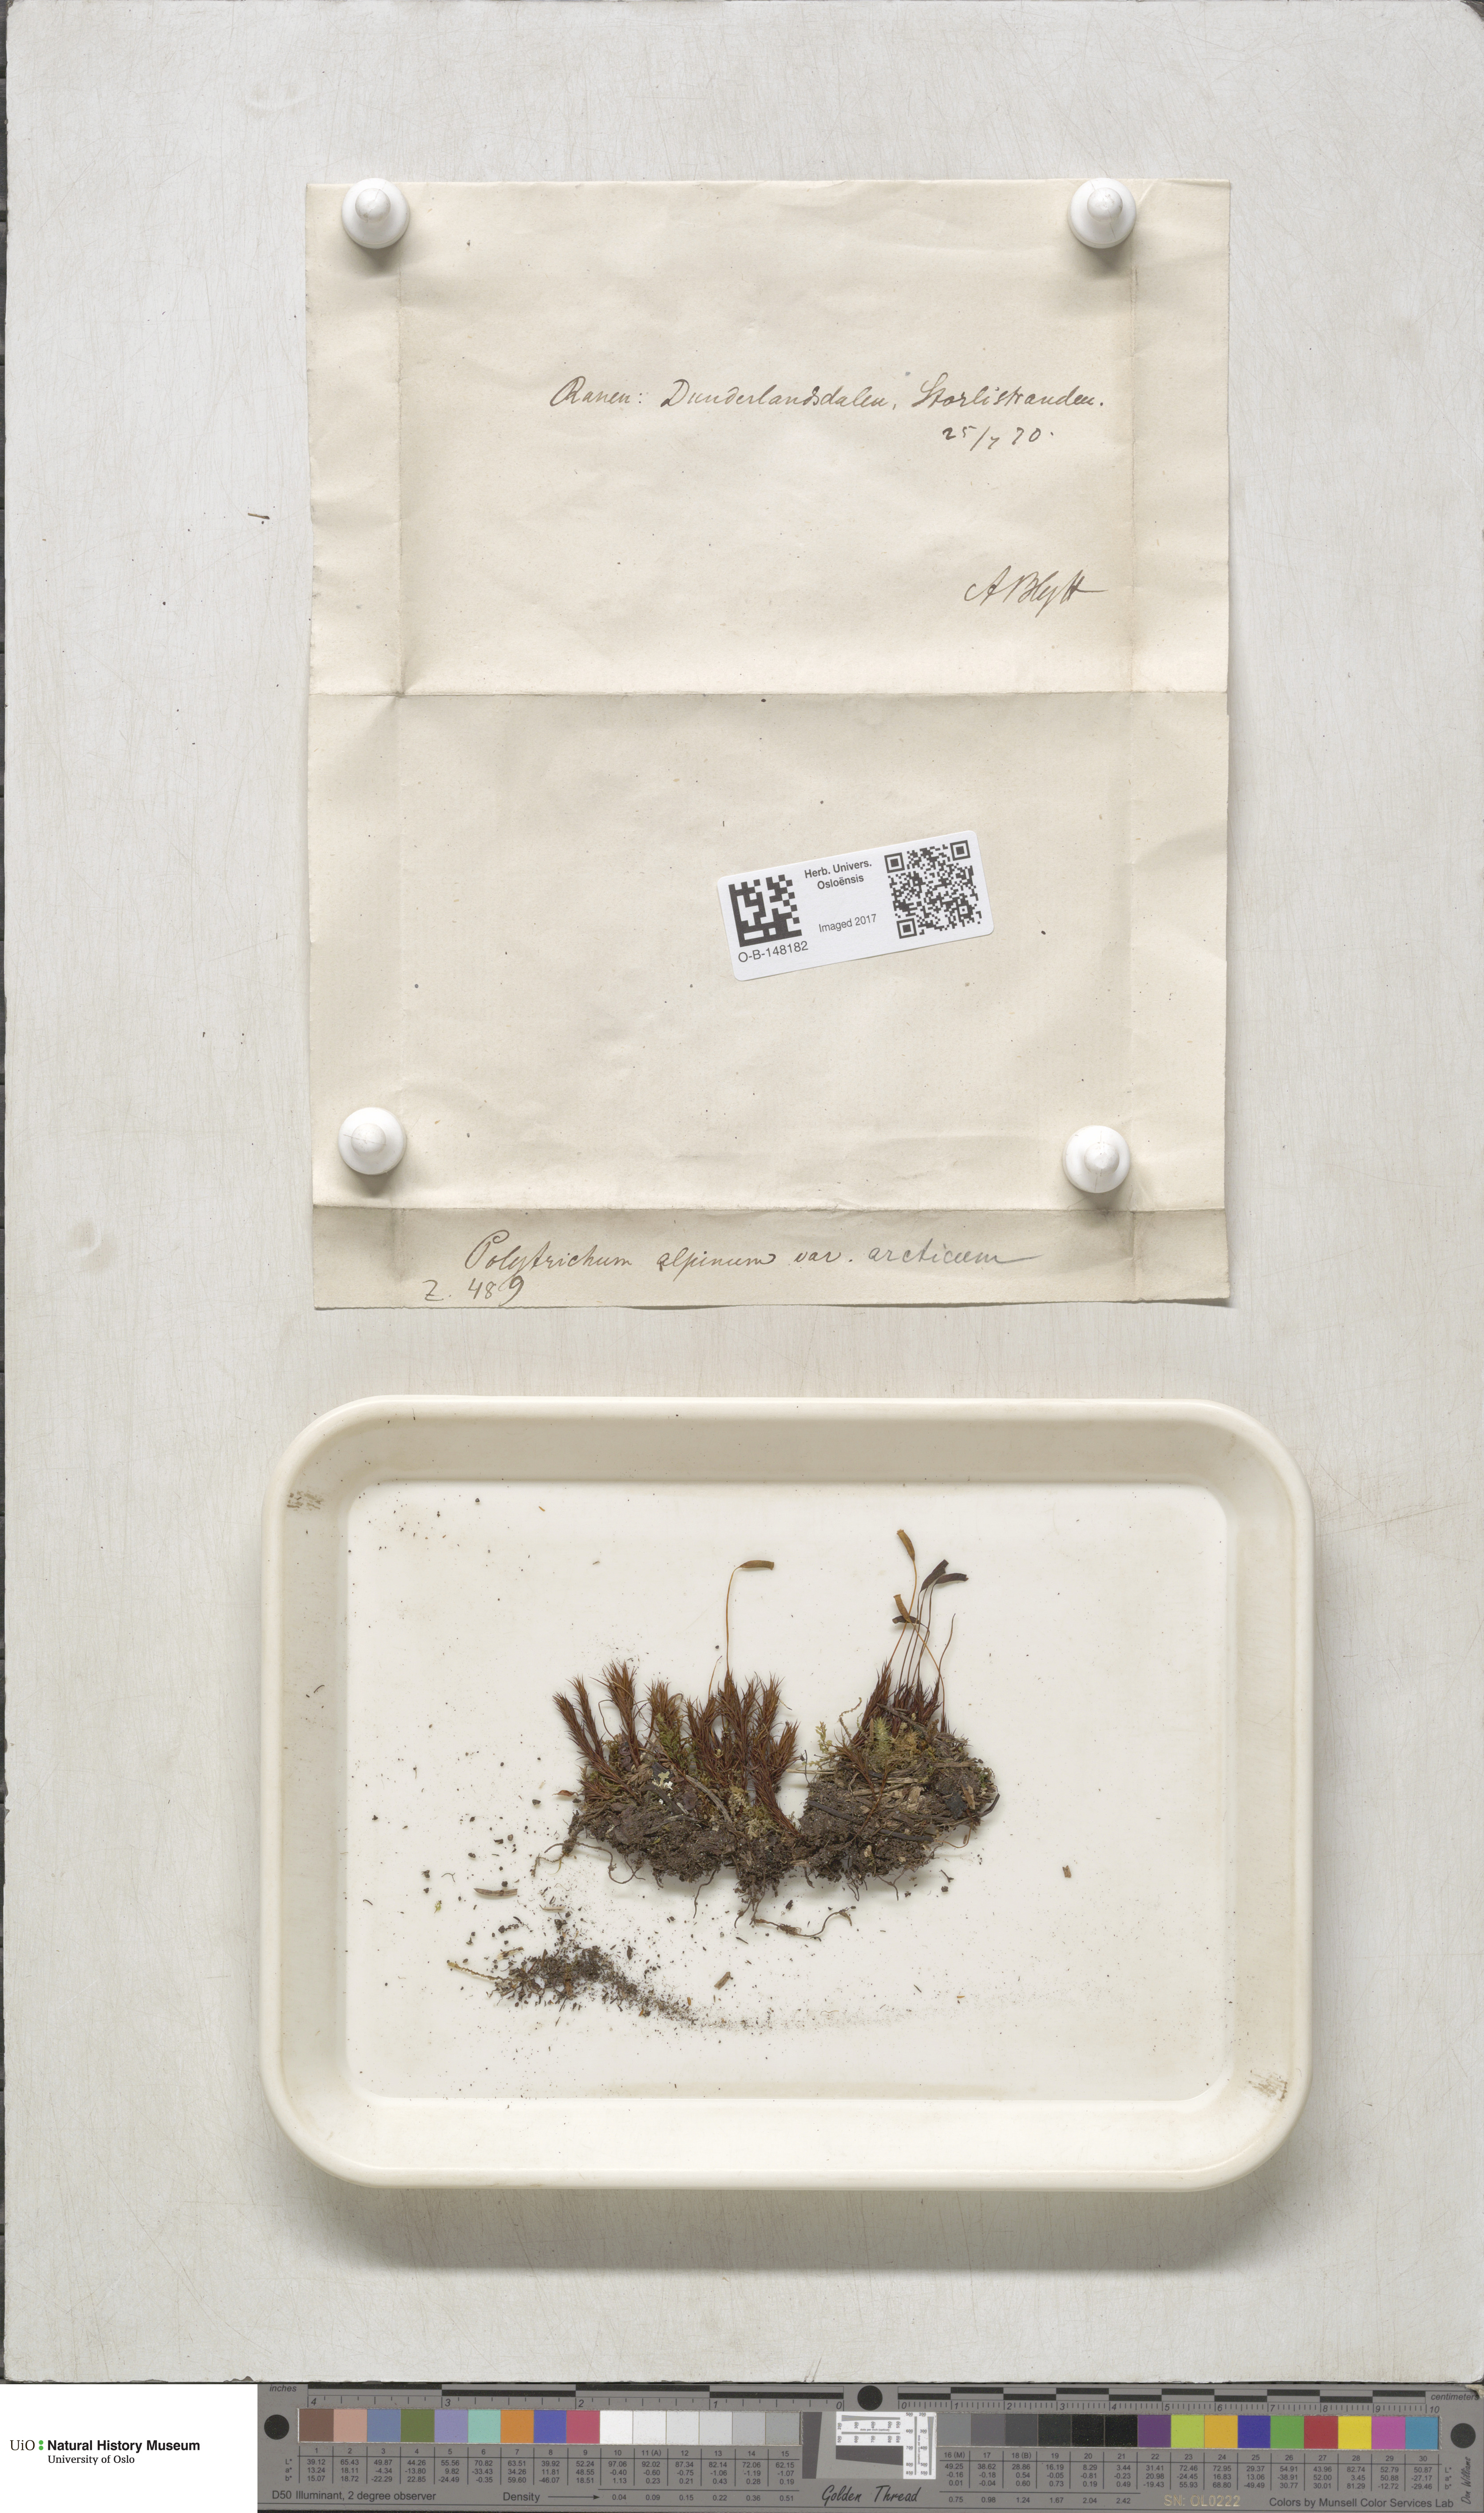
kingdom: Plantae
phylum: Bryophyta
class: Polytrichopsida
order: Polytrichales
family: Polytrichaceae
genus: Polytrichastrum
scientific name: Polytrichastrum alpinum
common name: Alpine haircap
